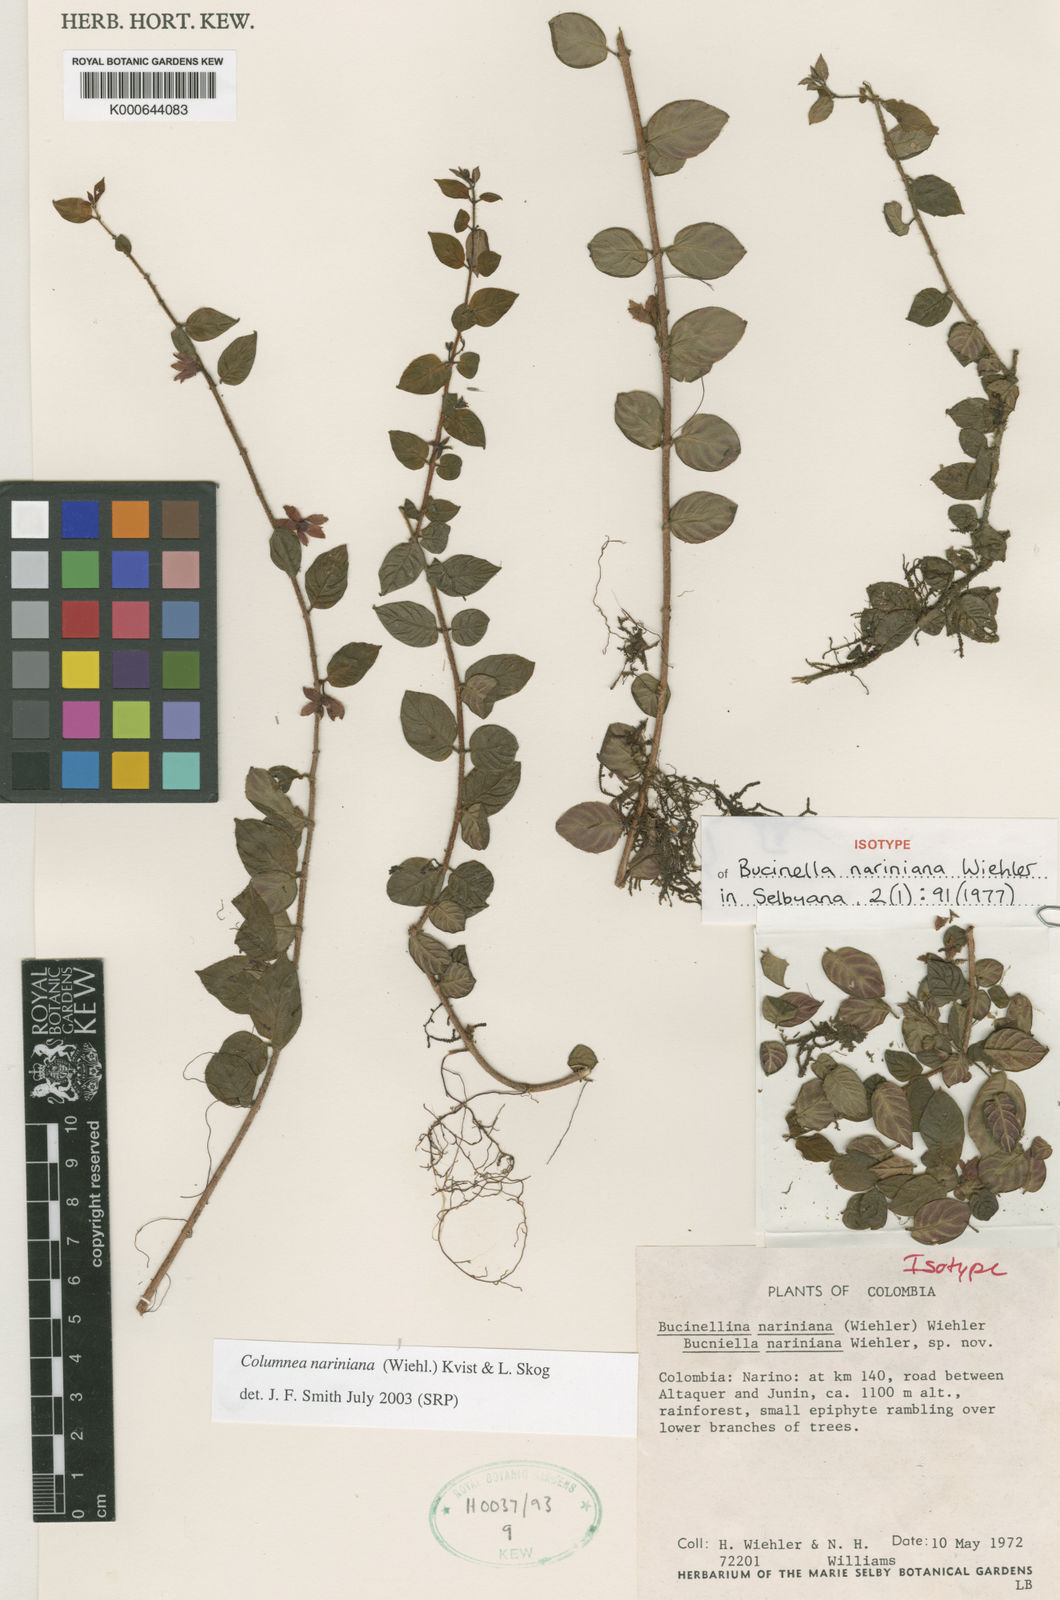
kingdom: Plantae
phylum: Tracheophyta
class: Magnoliopsida
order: Lamiales
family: Gesneriaceae
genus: Columnea
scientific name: Columnea nariniana
